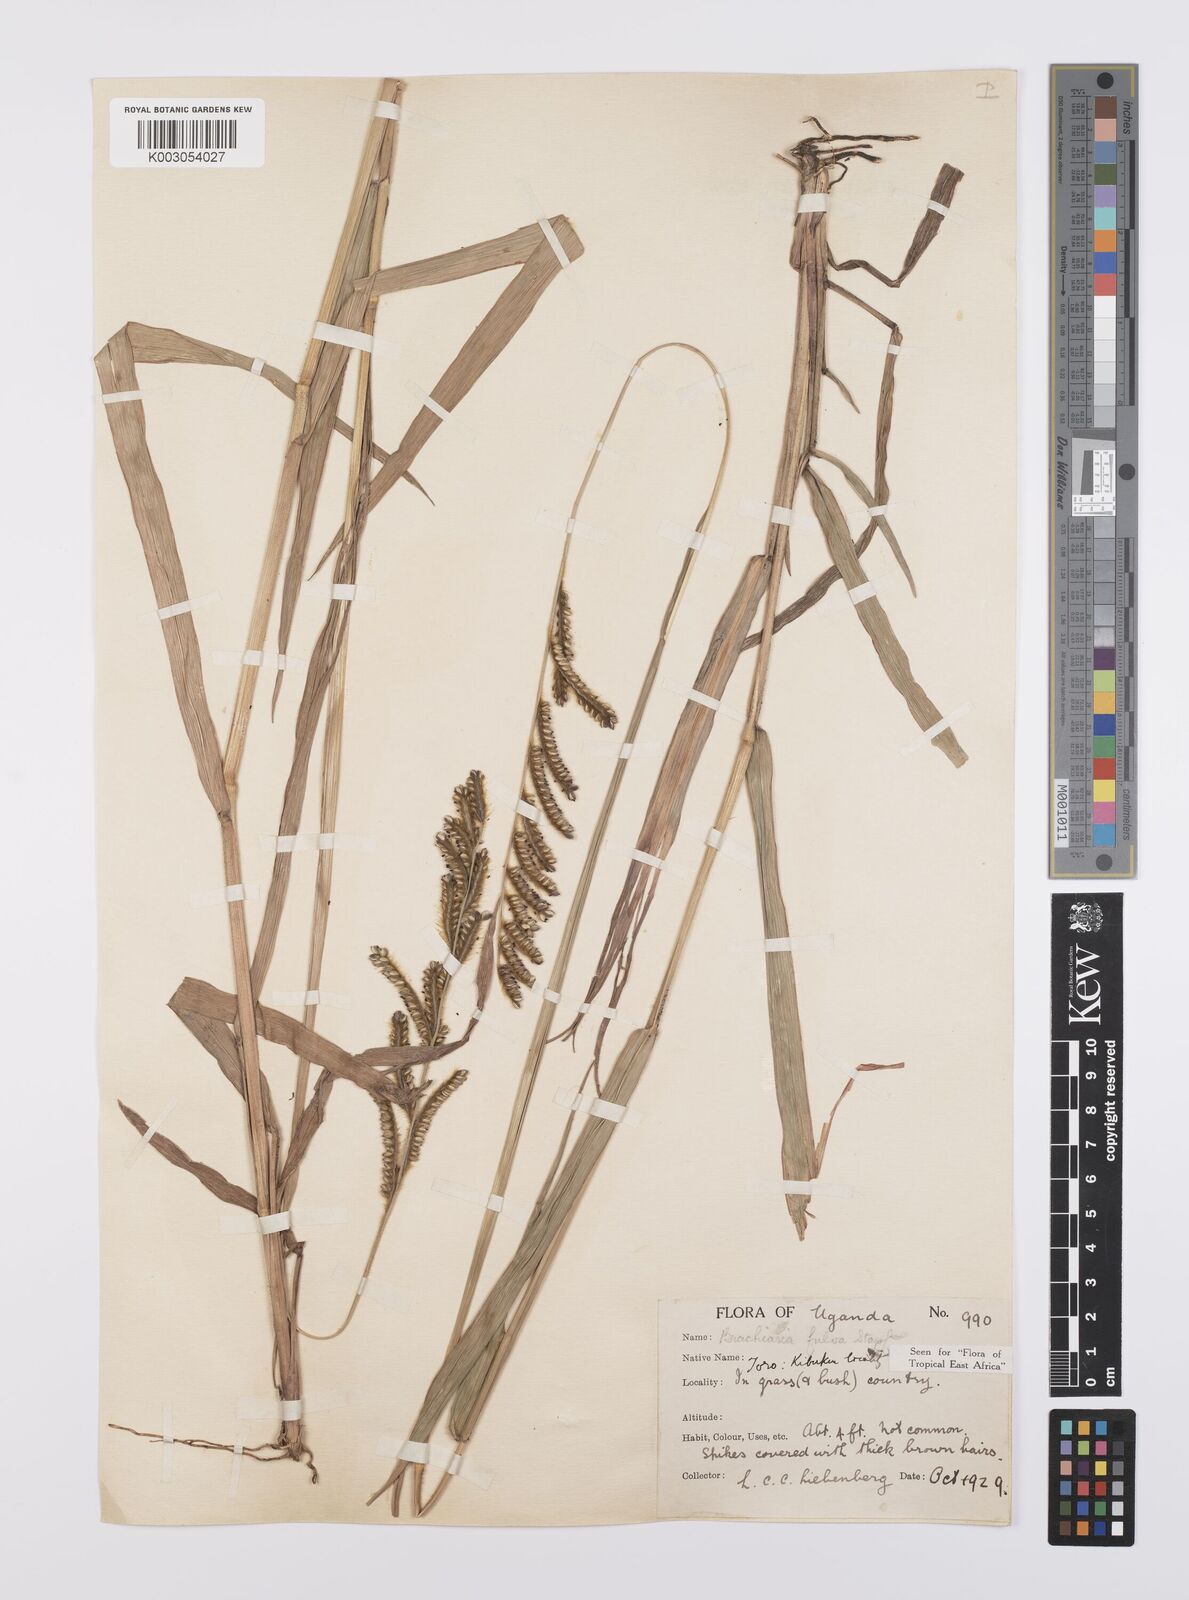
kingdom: Plantae
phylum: Tracheophyta
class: Liliopsida
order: Poales
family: Poaceae
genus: Urochloa
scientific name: Urochloa jubata
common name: Buffalograss
